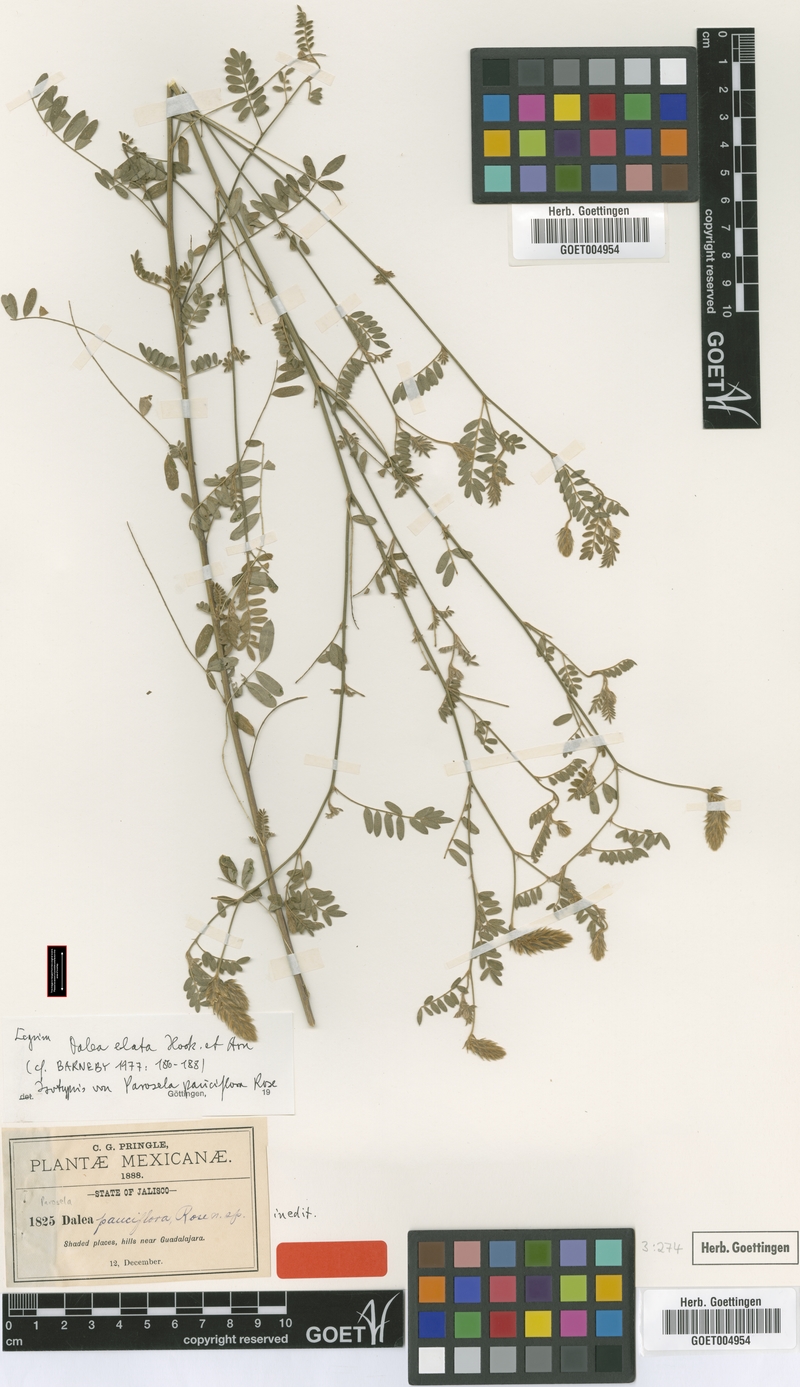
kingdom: Plantae
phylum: Tracheophyta
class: Magnoliopsida
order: Fabales
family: Fabaceae
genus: Dalea
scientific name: Dalea elata
